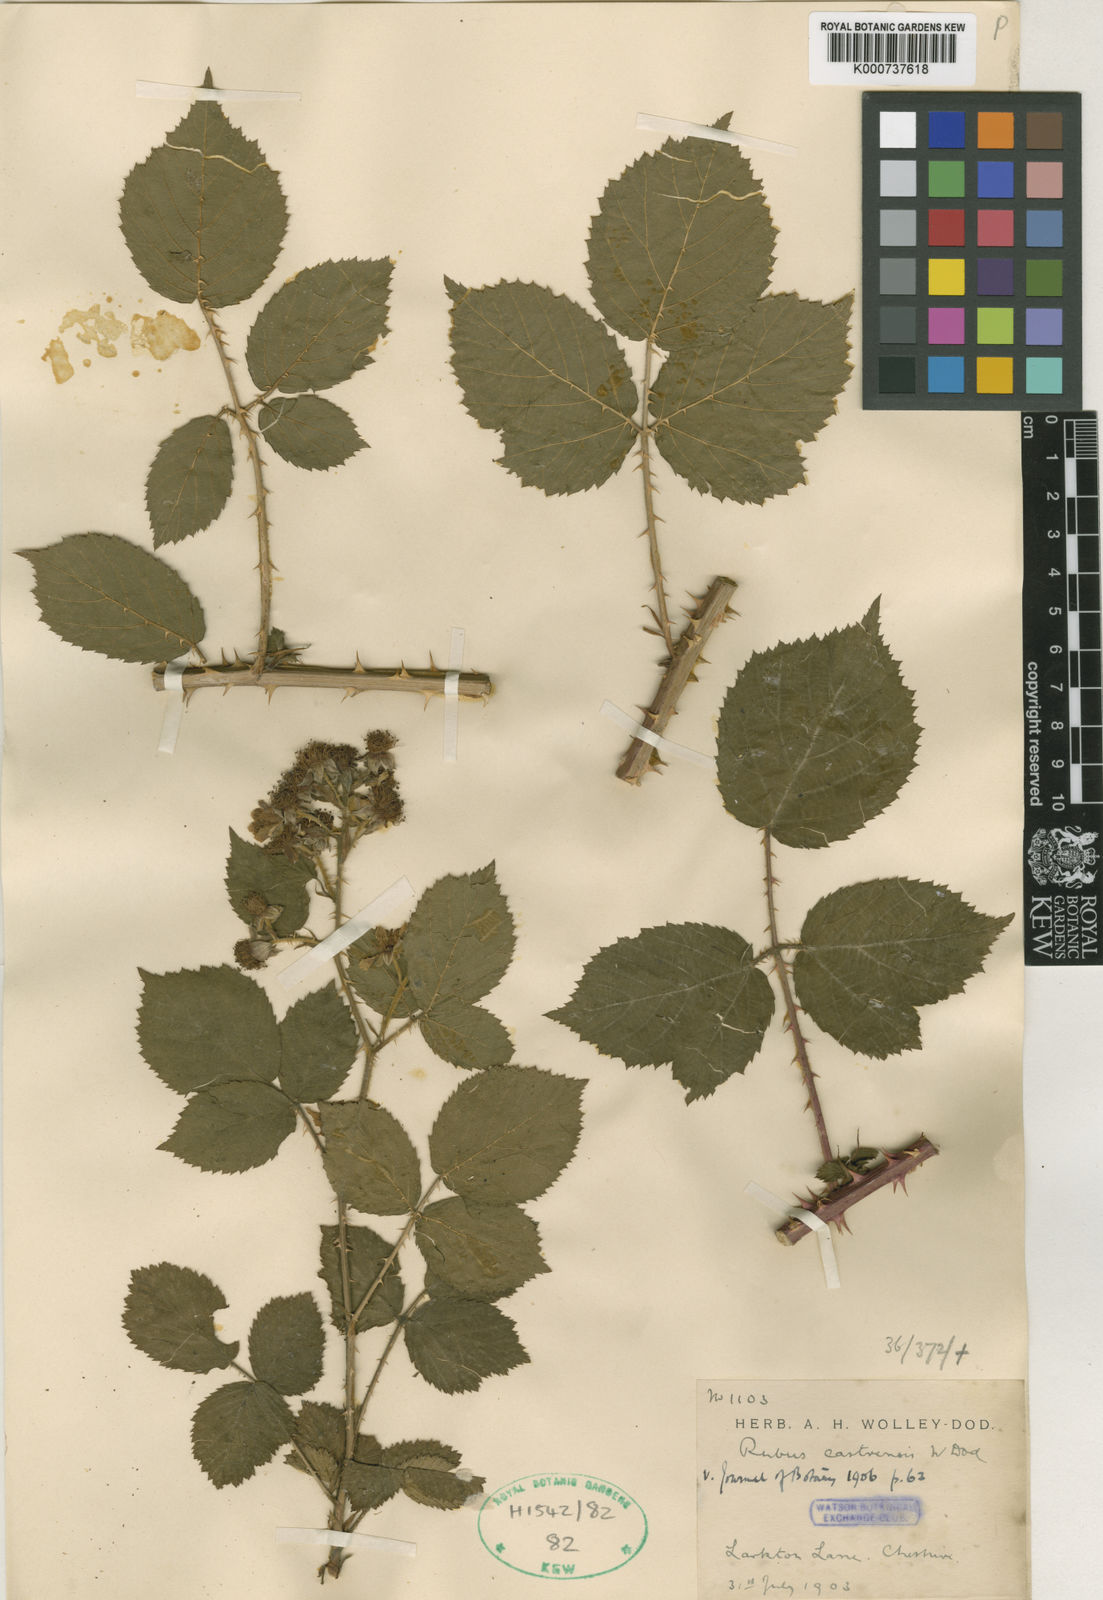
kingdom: Plantae
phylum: Tracheophyta
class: Magnoliopsida
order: Rosales
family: Rosaceae
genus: Rubus
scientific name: Rubus villicaulis
